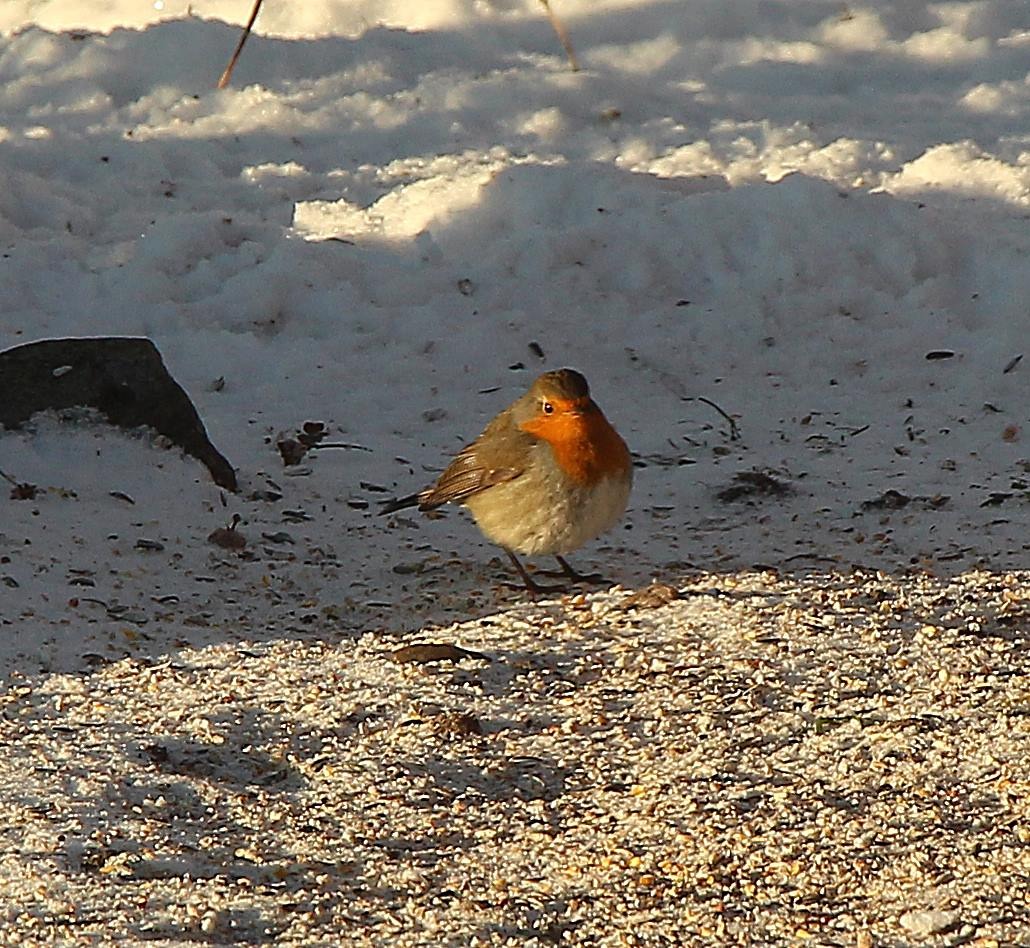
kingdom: Animalia
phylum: Chordata
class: Aves
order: Passeriformes
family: Muscicapidae
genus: Erithacus
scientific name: Erithacus rubecula
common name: Rødhals/rødkælk
